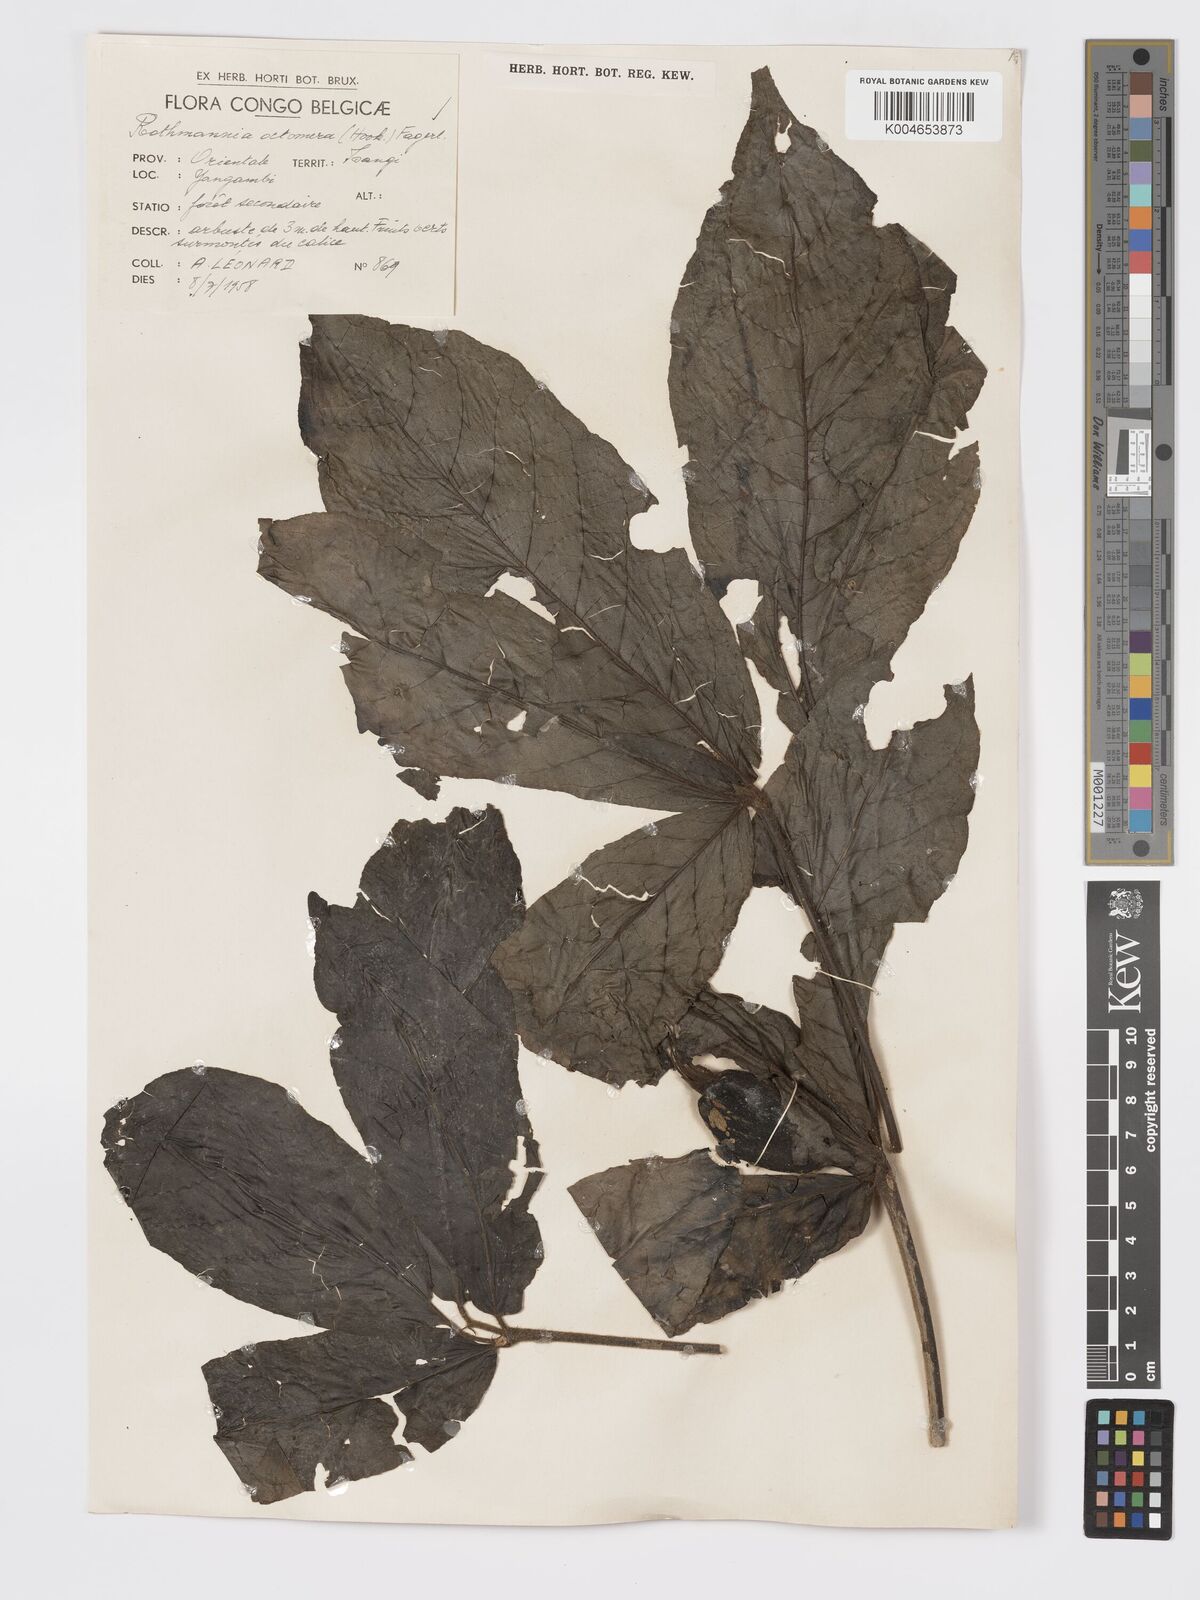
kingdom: Plantae
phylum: Tracheophyta
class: Magnoliopsida
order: Gentianales
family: Rubiaceae
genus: Rothmannia
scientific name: Rothmannia octomera
